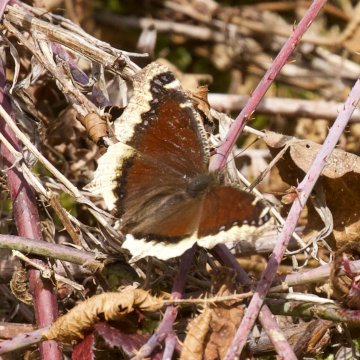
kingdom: Animalia
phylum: Arthropoda
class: Insecta
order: Lepidoptera
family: Nymphalidae
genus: Nymphalis
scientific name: Nymphalis antiopa
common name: Mourning Cloak
